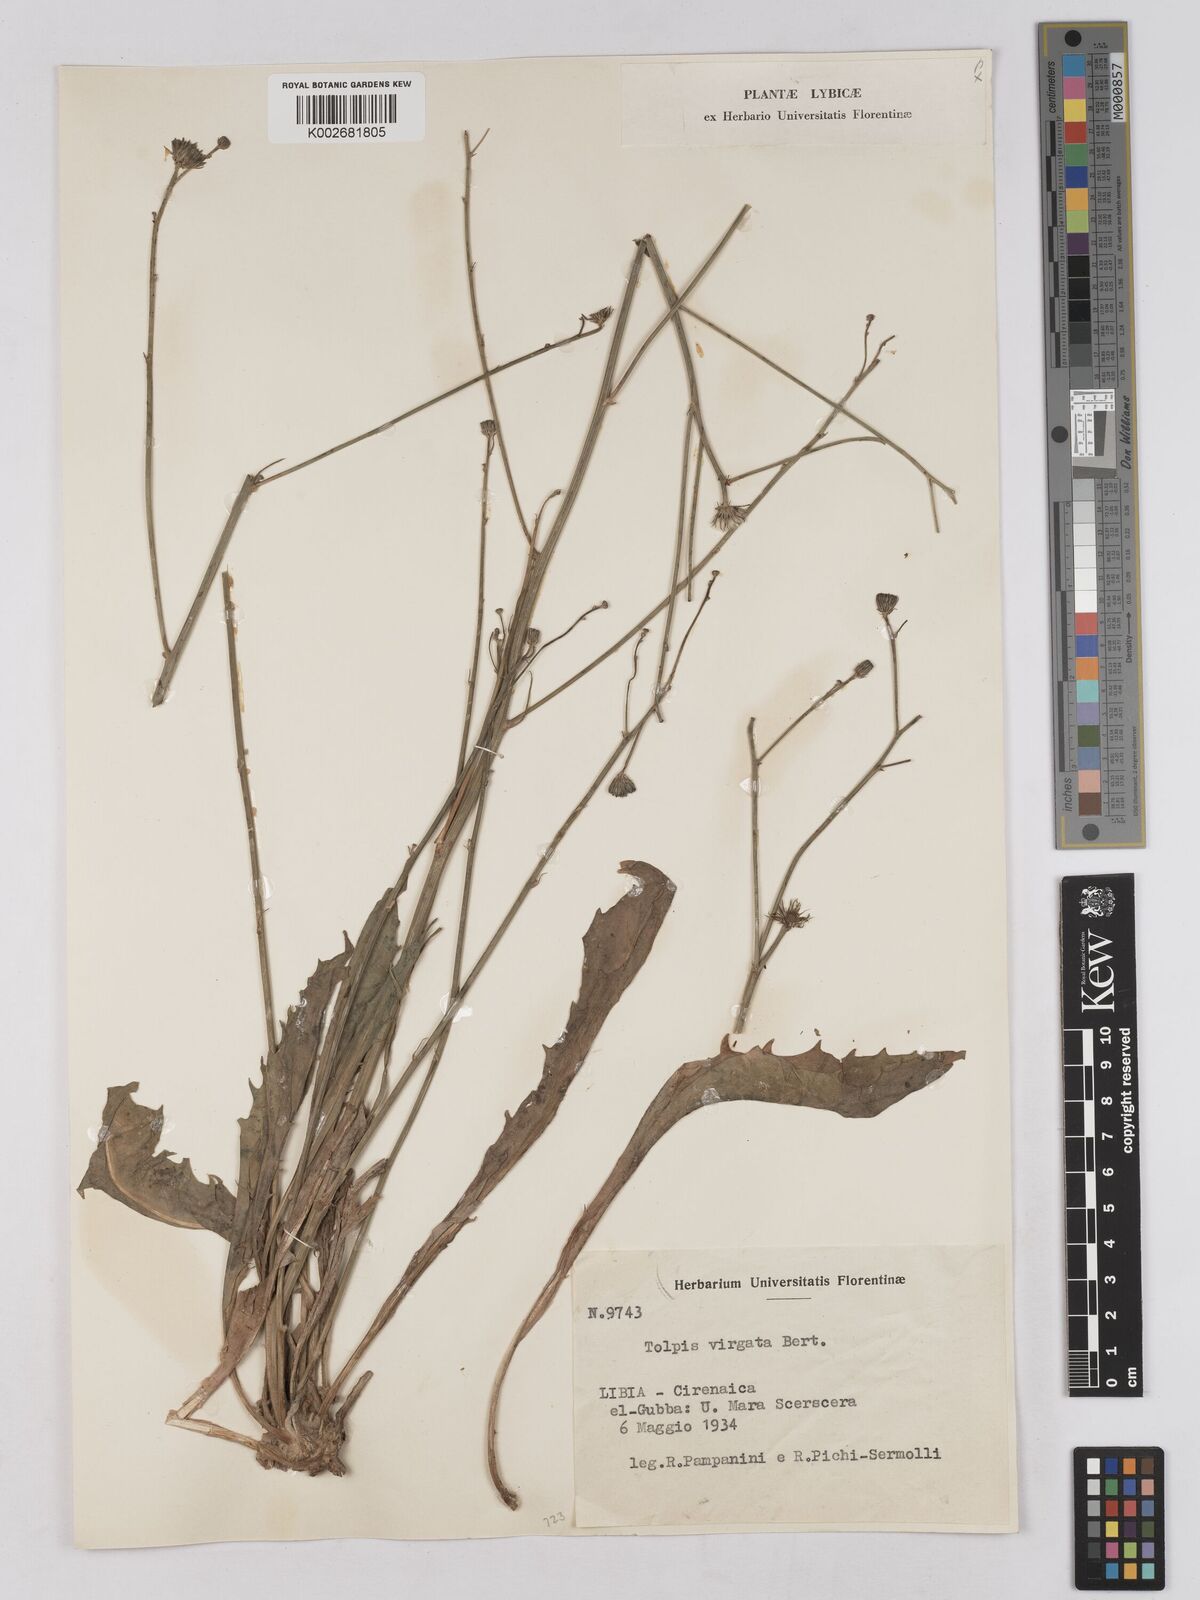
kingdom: Plantae
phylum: Tracheophyta
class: Magnoliopsida
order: Asterales
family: Asteraceae
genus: Tolpis
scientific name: Tolpis virgata
